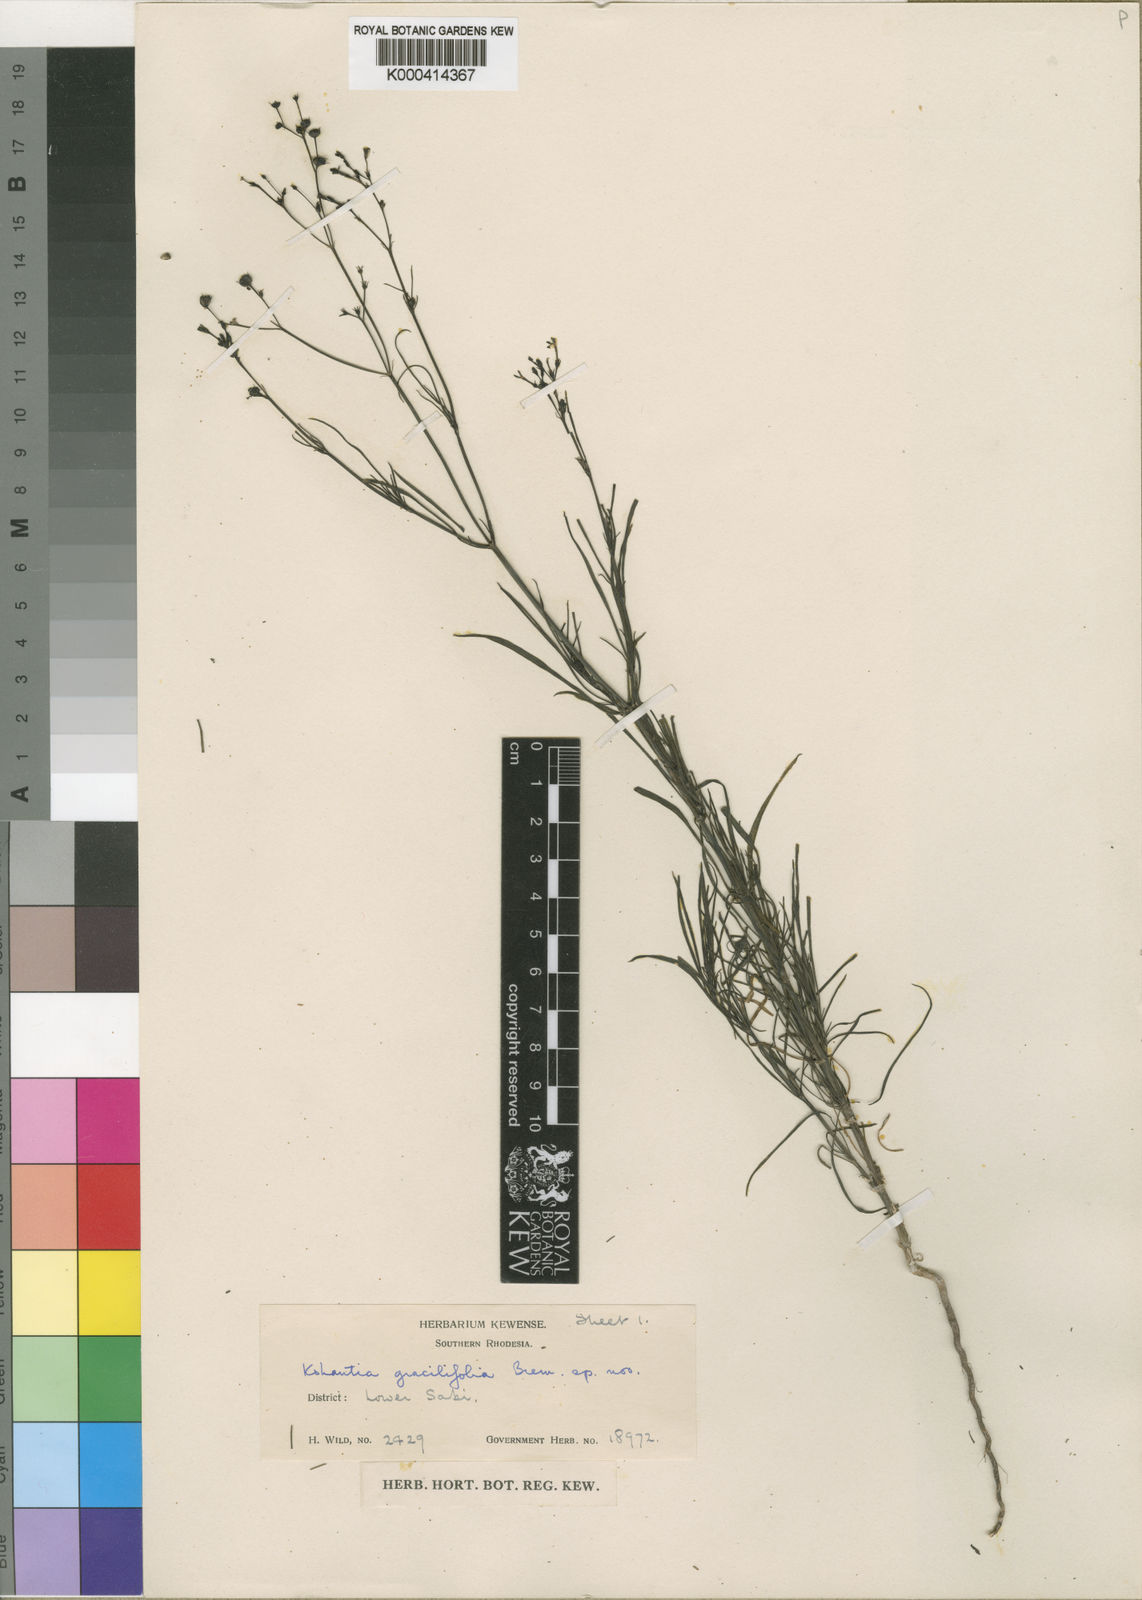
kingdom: Plantae
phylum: Tracheophyta
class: Magnoliopsida
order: Gentianales
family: Rubiaceae
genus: Kohautia
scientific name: Kohautia cynanchica
